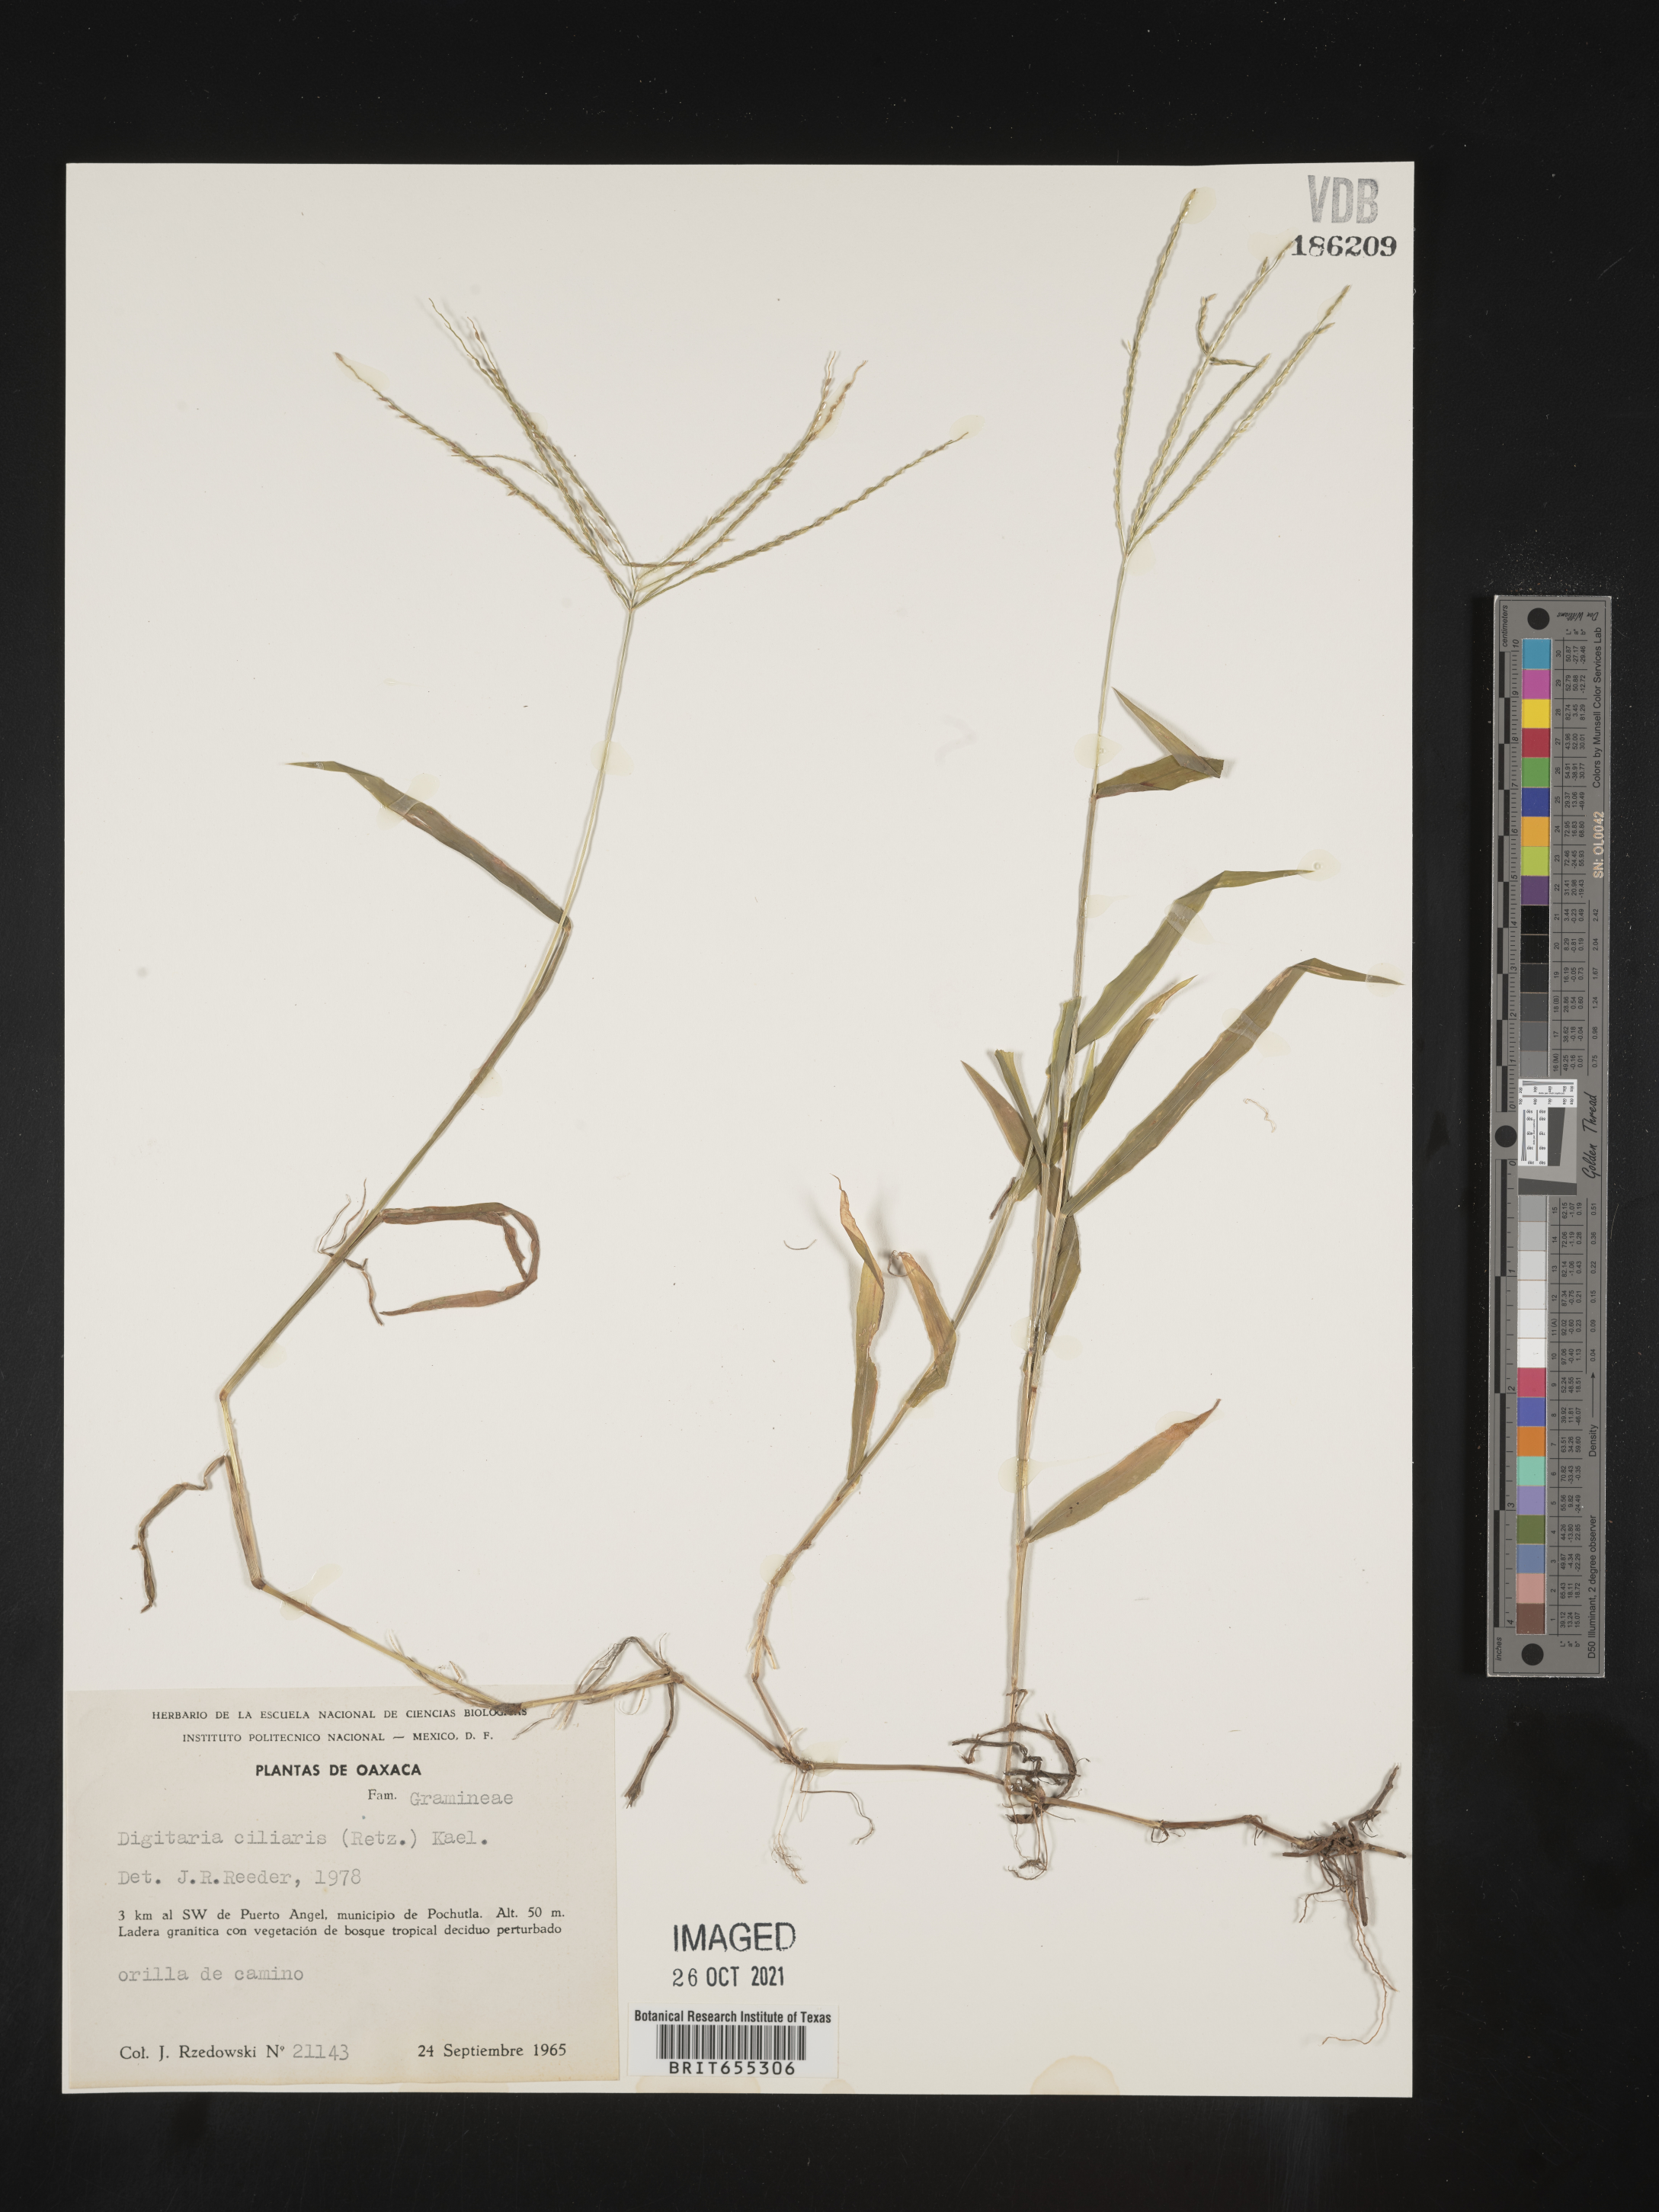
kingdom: Plantae
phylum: Tracheophyta
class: Liliopsida
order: Poales
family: Poaceae
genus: Digitaria
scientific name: Digitaria
